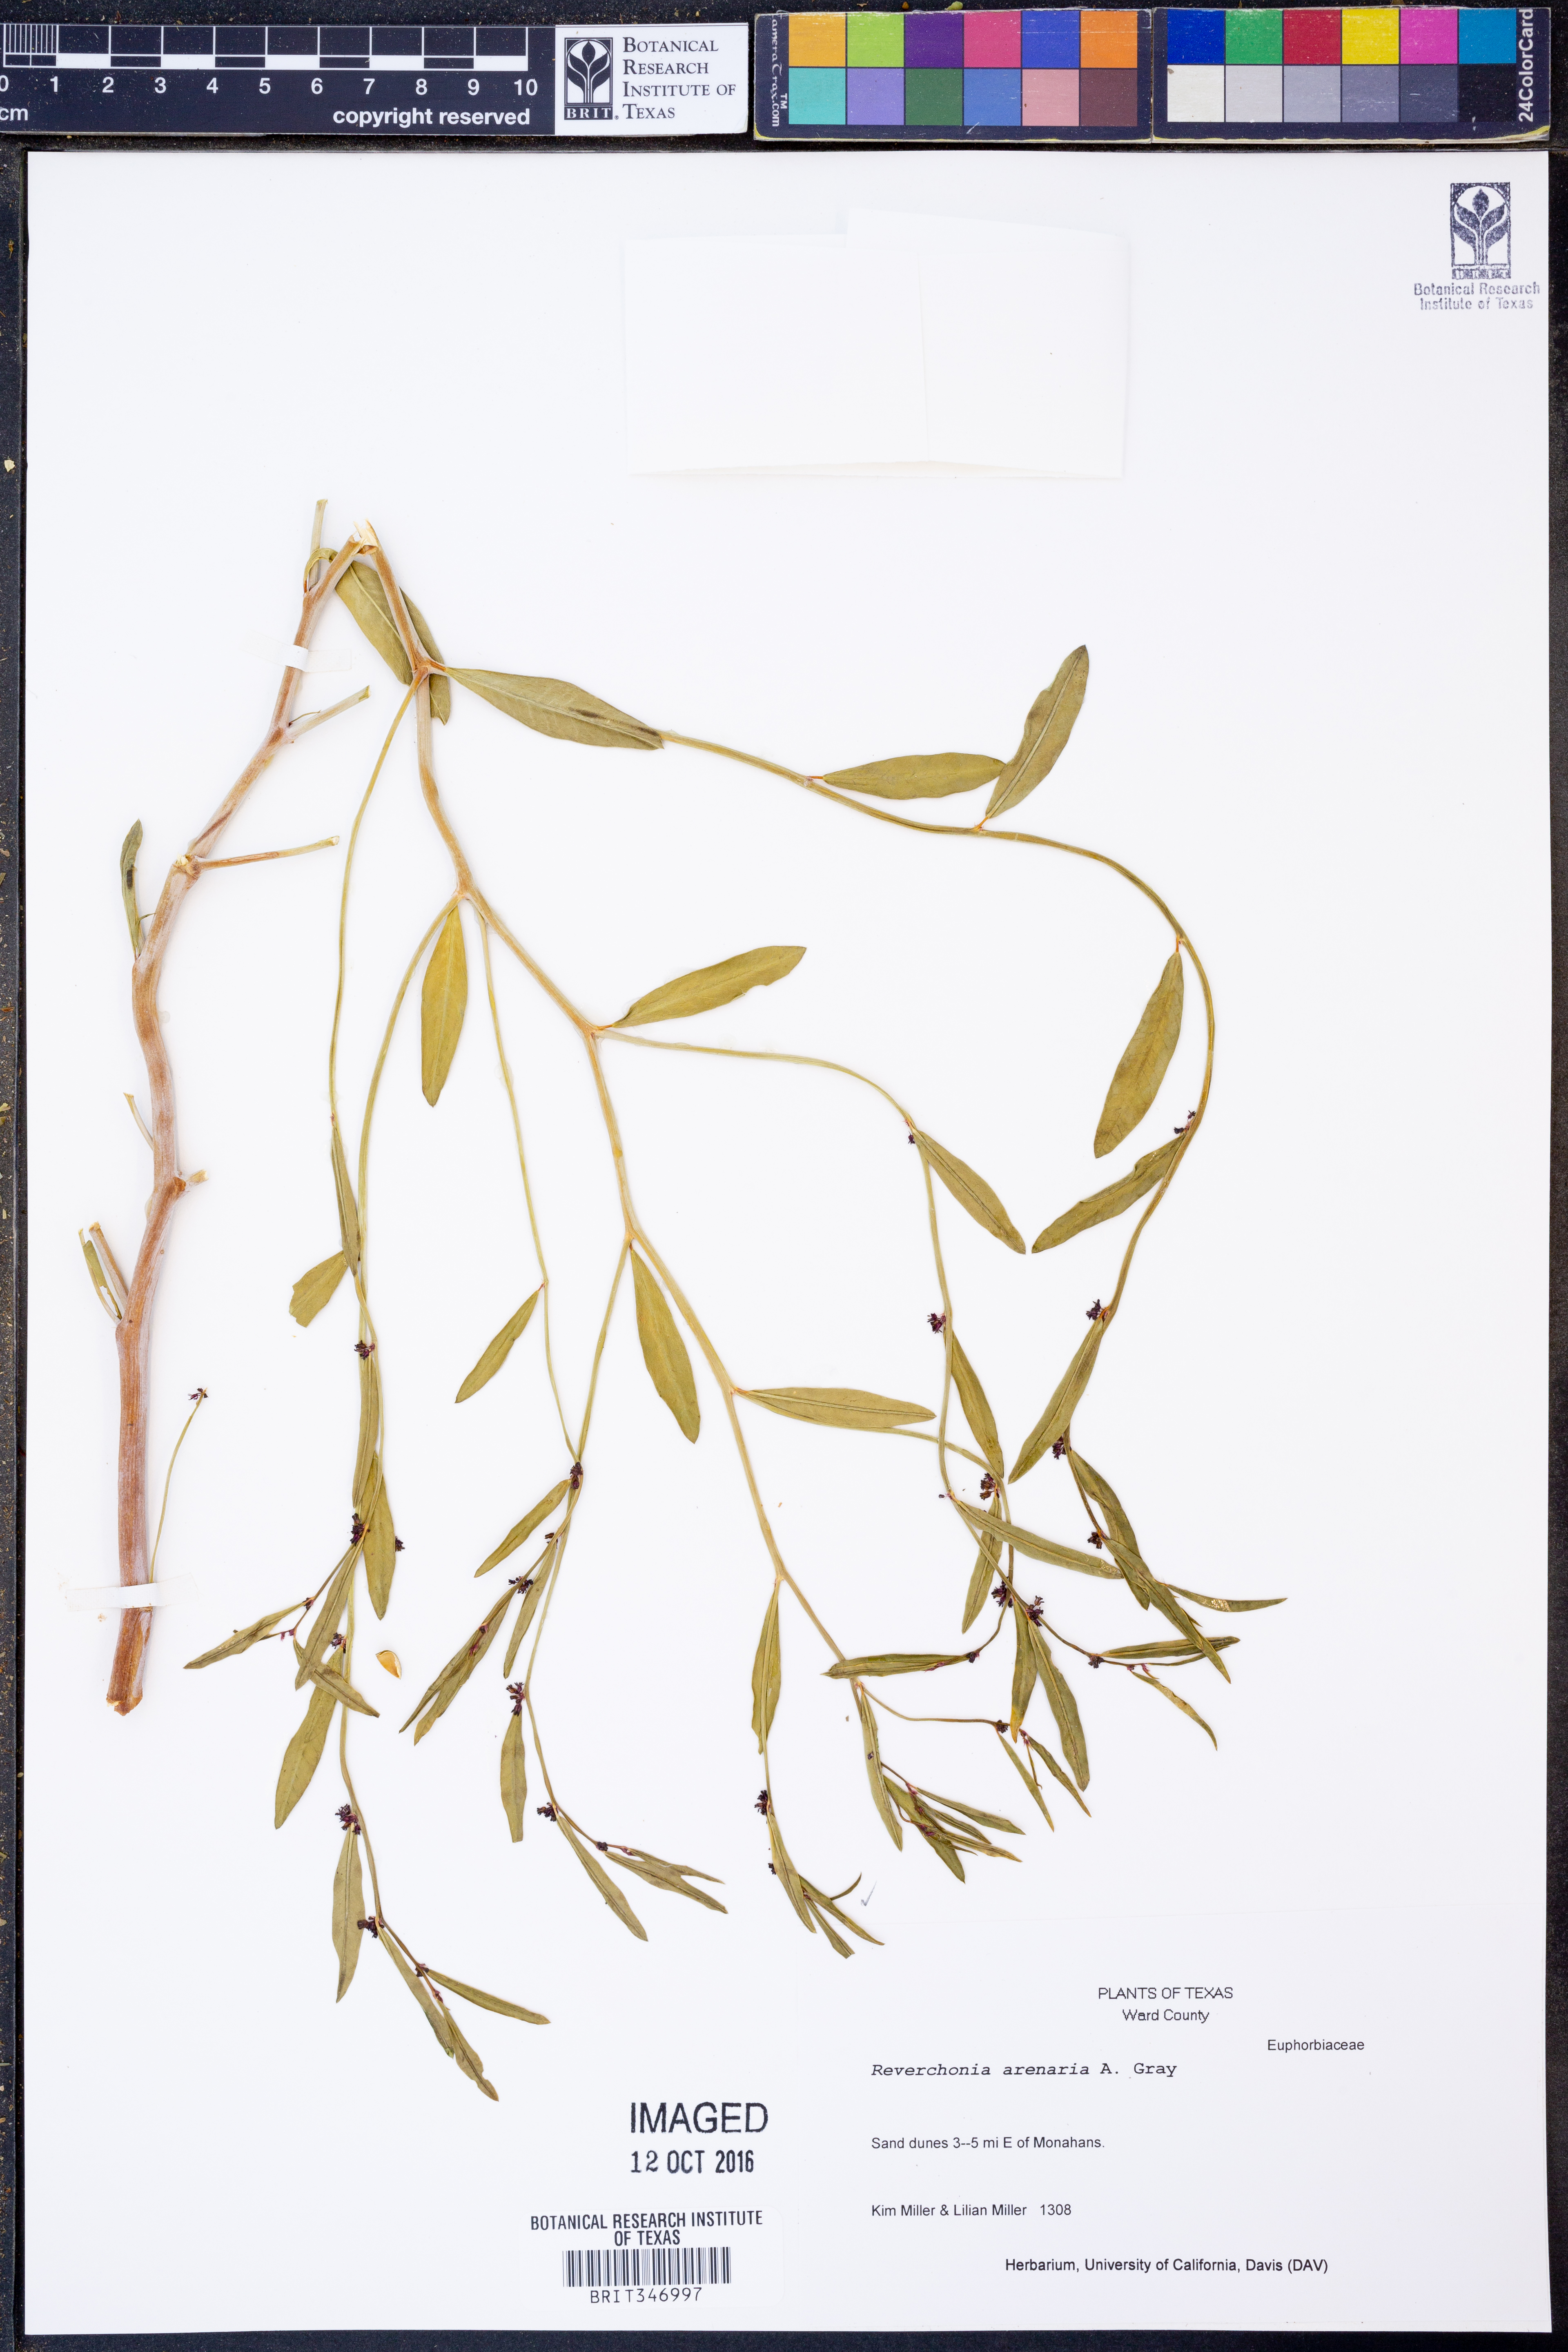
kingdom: Plantae
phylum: Tracheophyta
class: Magnoliopsida
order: Malpighiales
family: Phyllanthaceae
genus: Phyllanthus
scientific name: Phyllanthus warnockii
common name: Sand reverchonia
